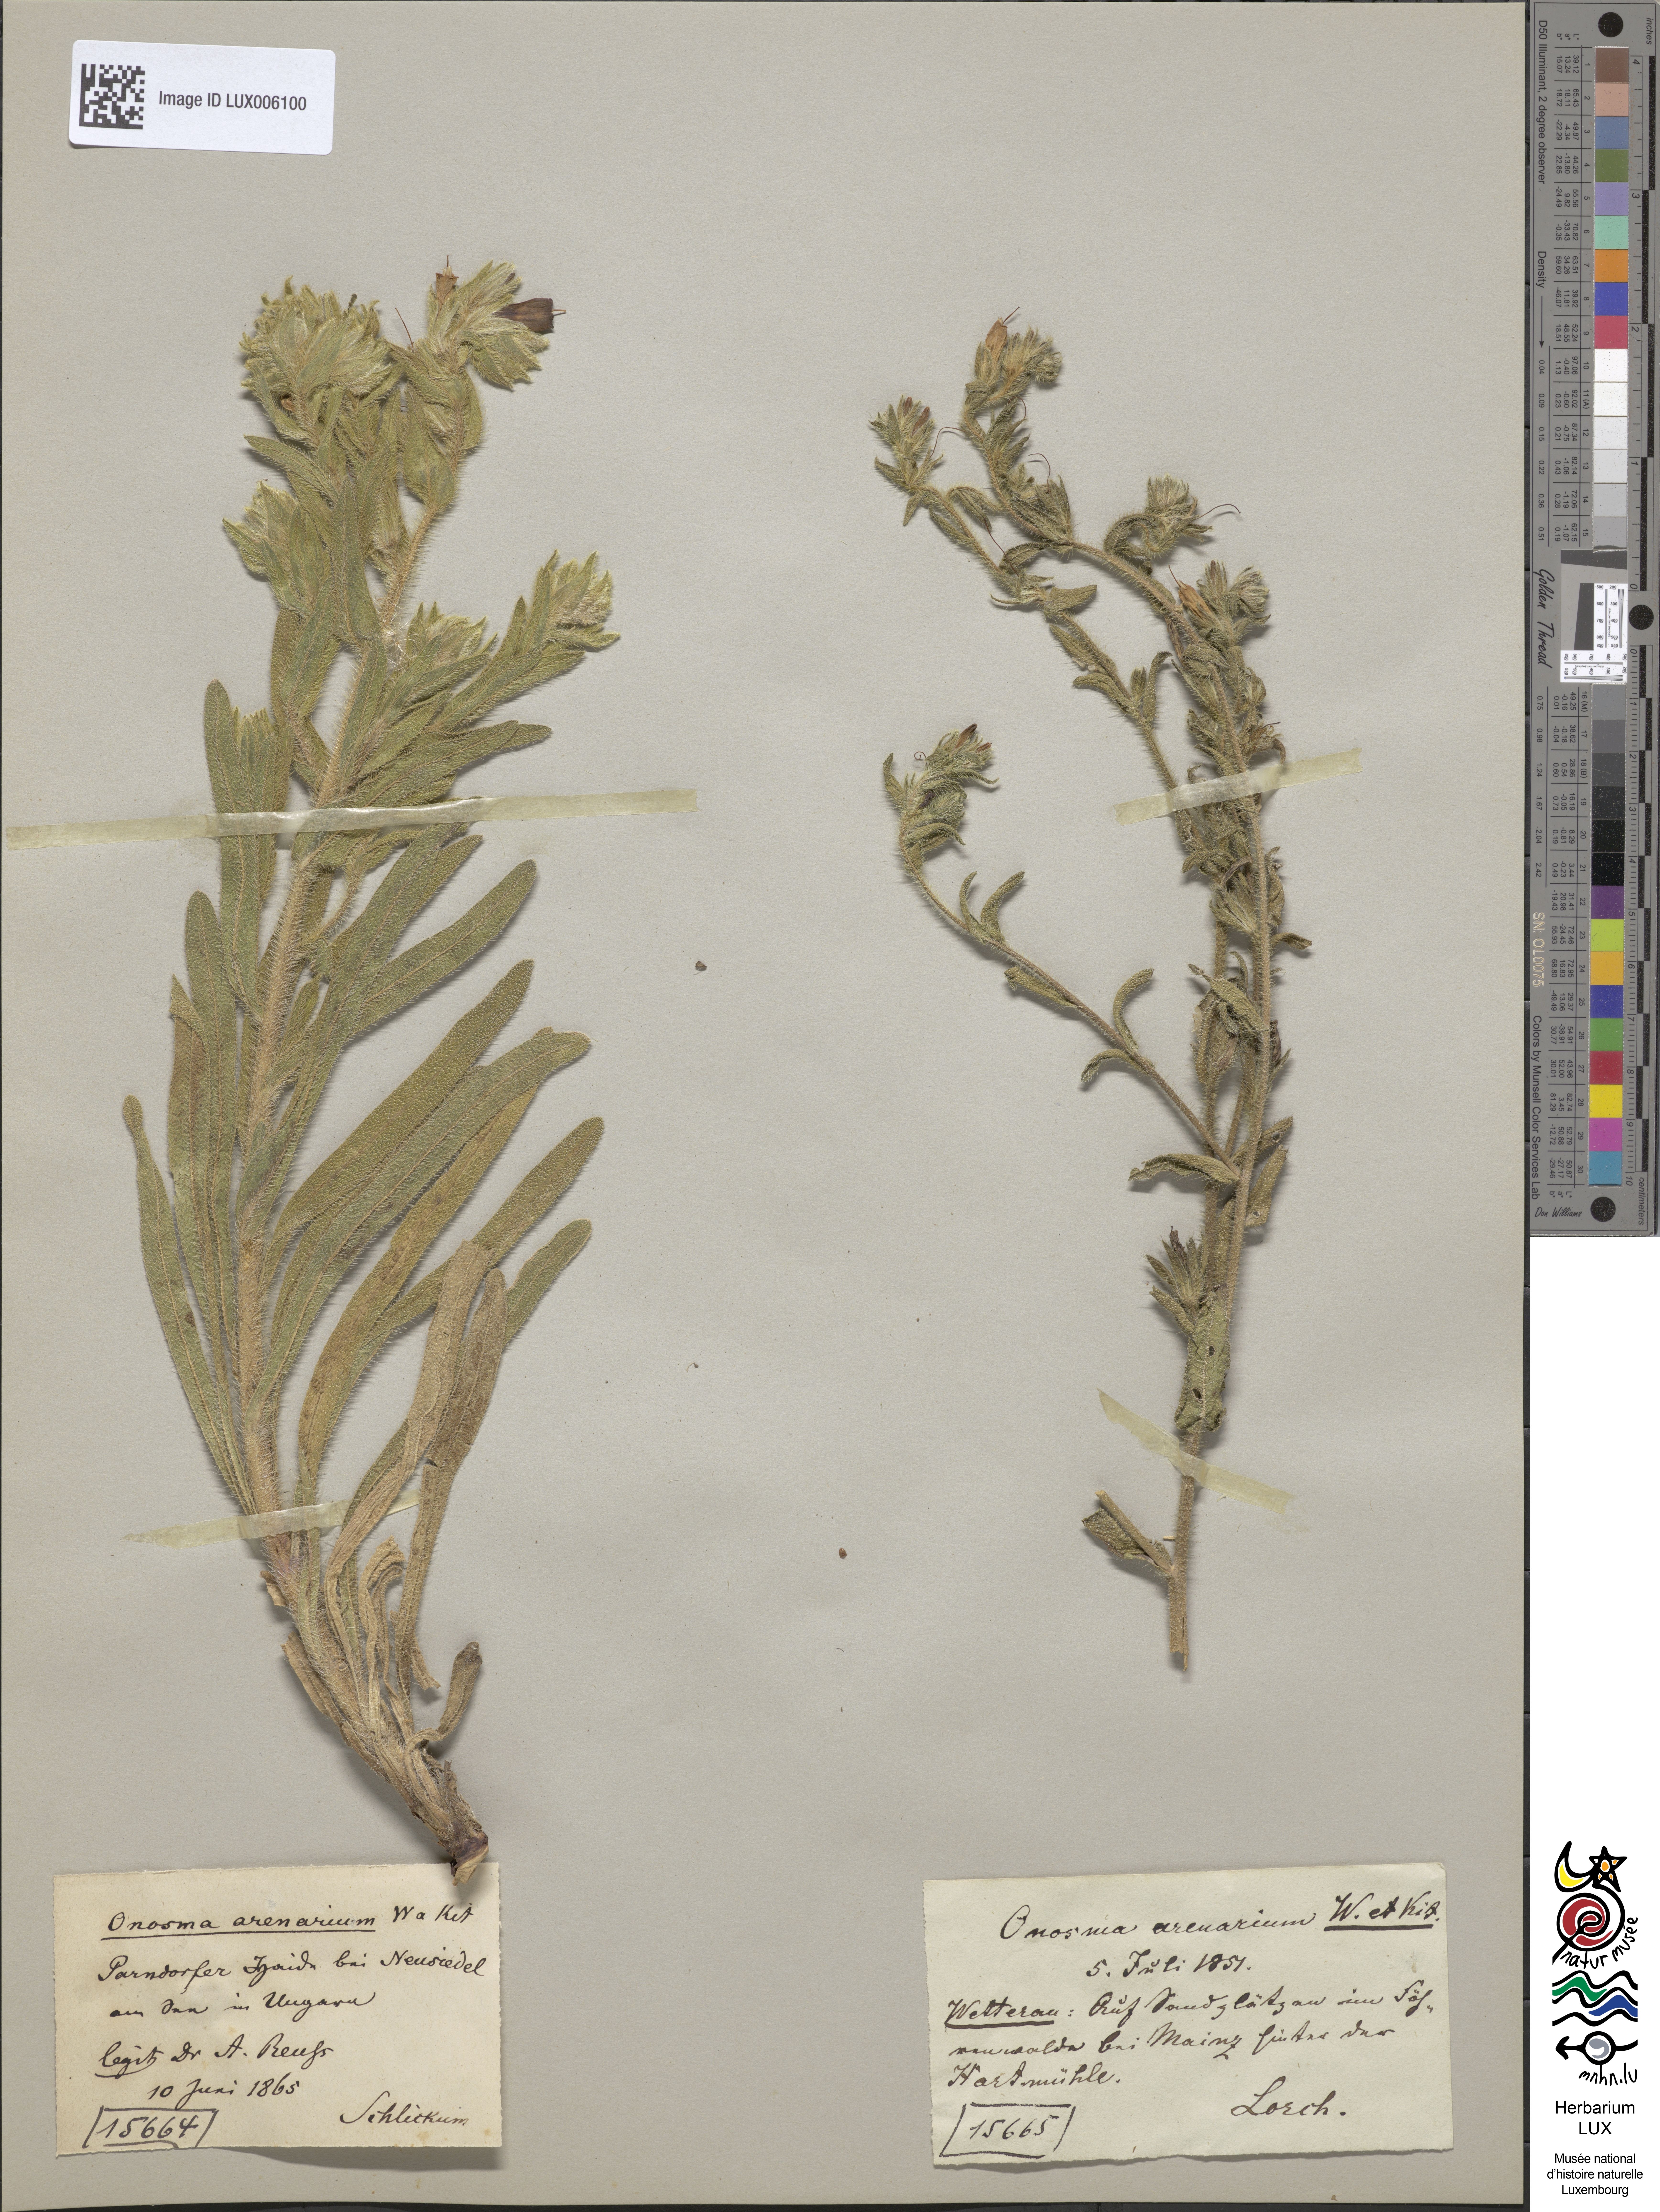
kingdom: Plantae
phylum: Tracheophyta
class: Magnoliopsida
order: Boraginales
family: Boraginaceae
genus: Onosma
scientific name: Onosma arenaria
